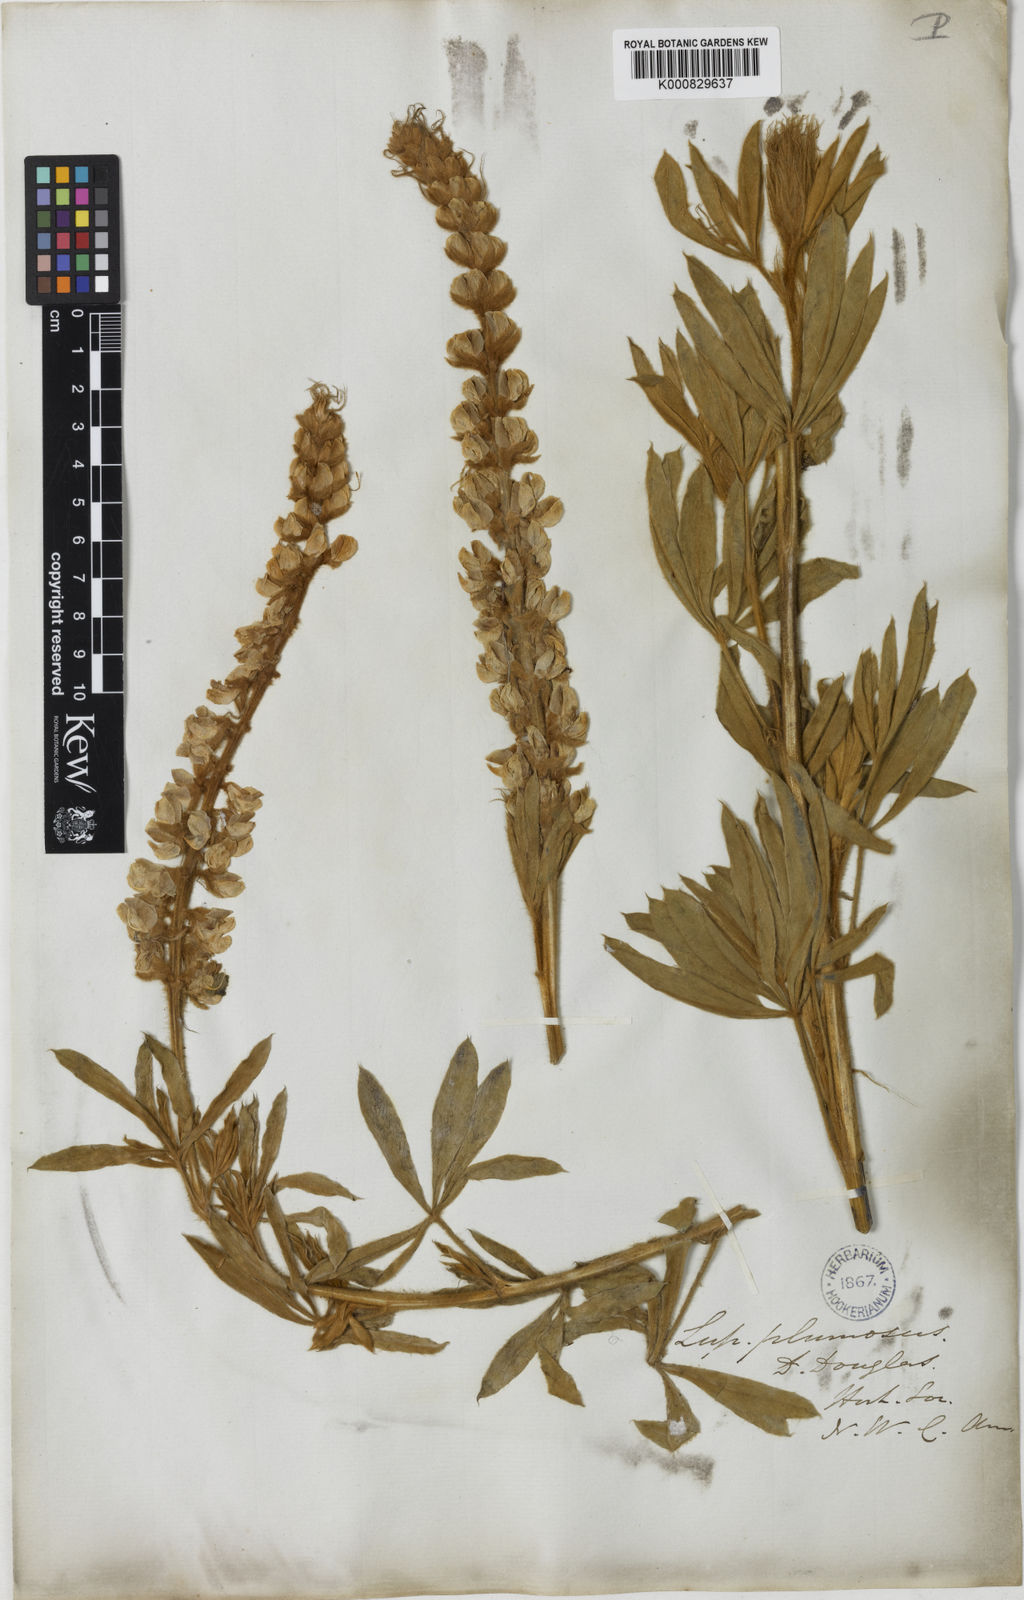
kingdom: Plantae
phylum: Tracheophyta
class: Magnoliopsida
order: Fabales
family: Fabaceae
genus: Lupinus
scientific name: Lupinus leucophyllus
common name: Woolly-leaf lupine
